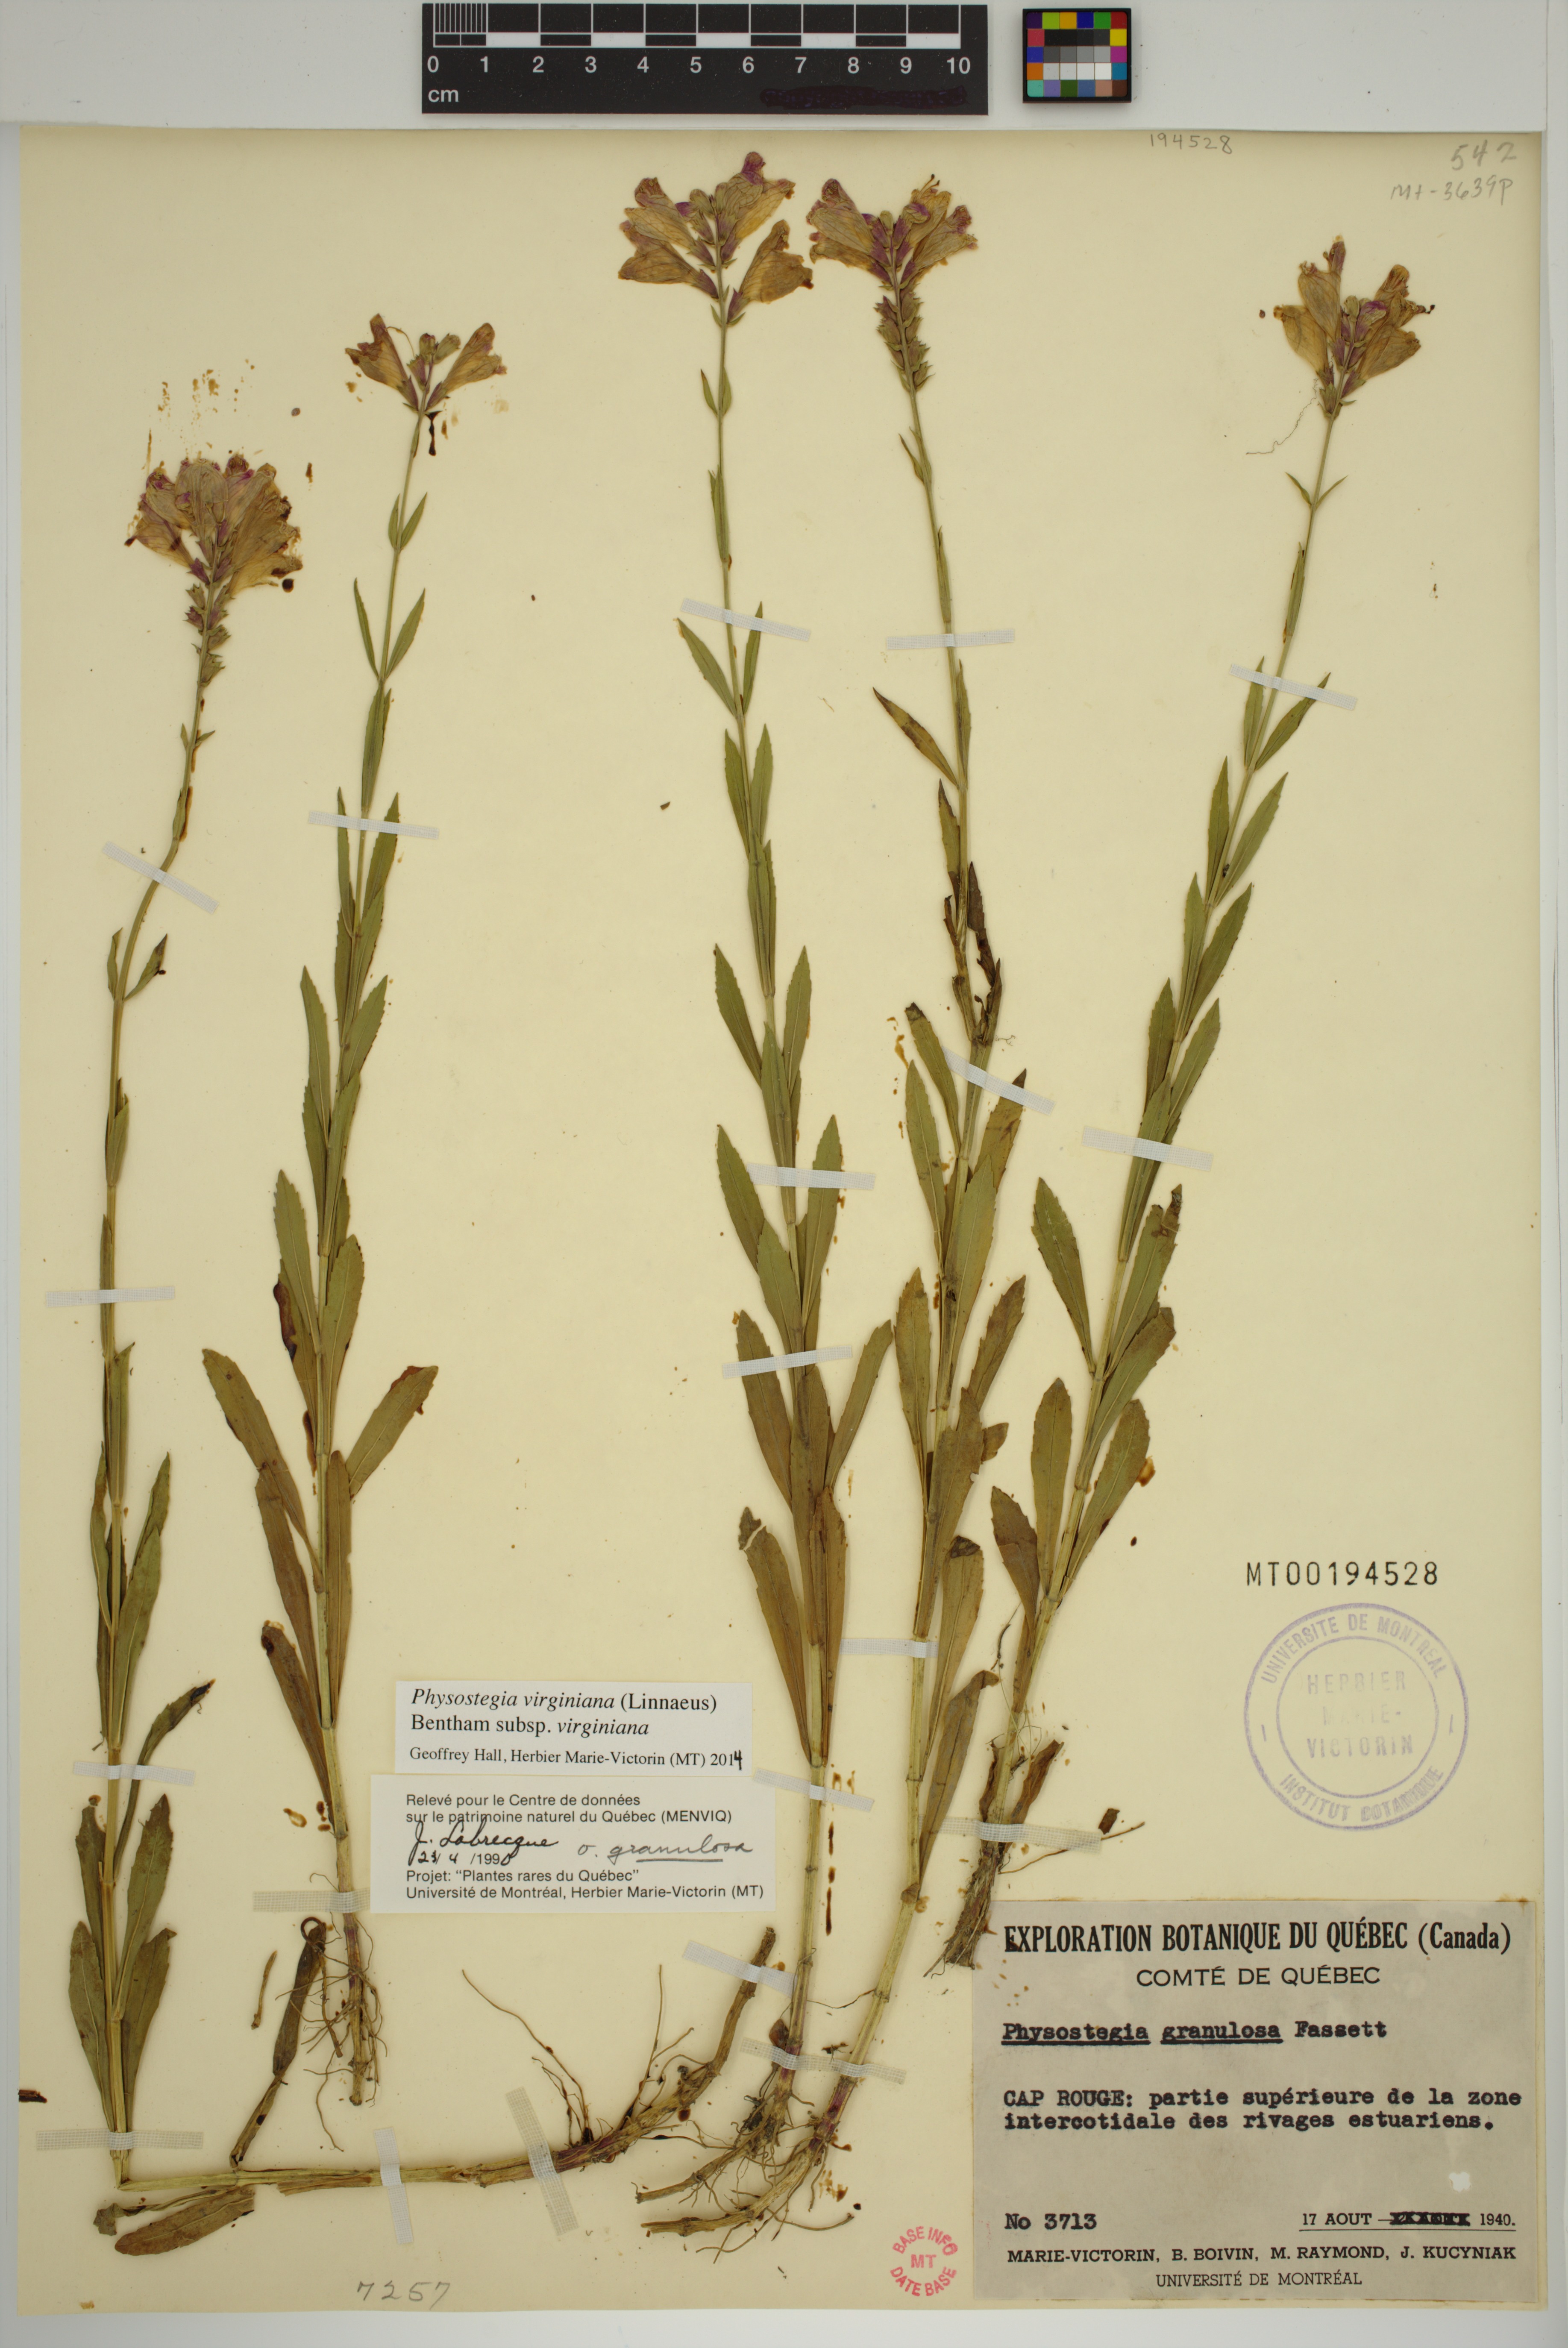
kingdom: Plantae
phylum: Tracheophyta
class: Magnoliopsida
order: Lamiales
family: Lamiaceae
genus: Physostegia
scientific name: Physostegia virginiana
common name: Obedient-plant
